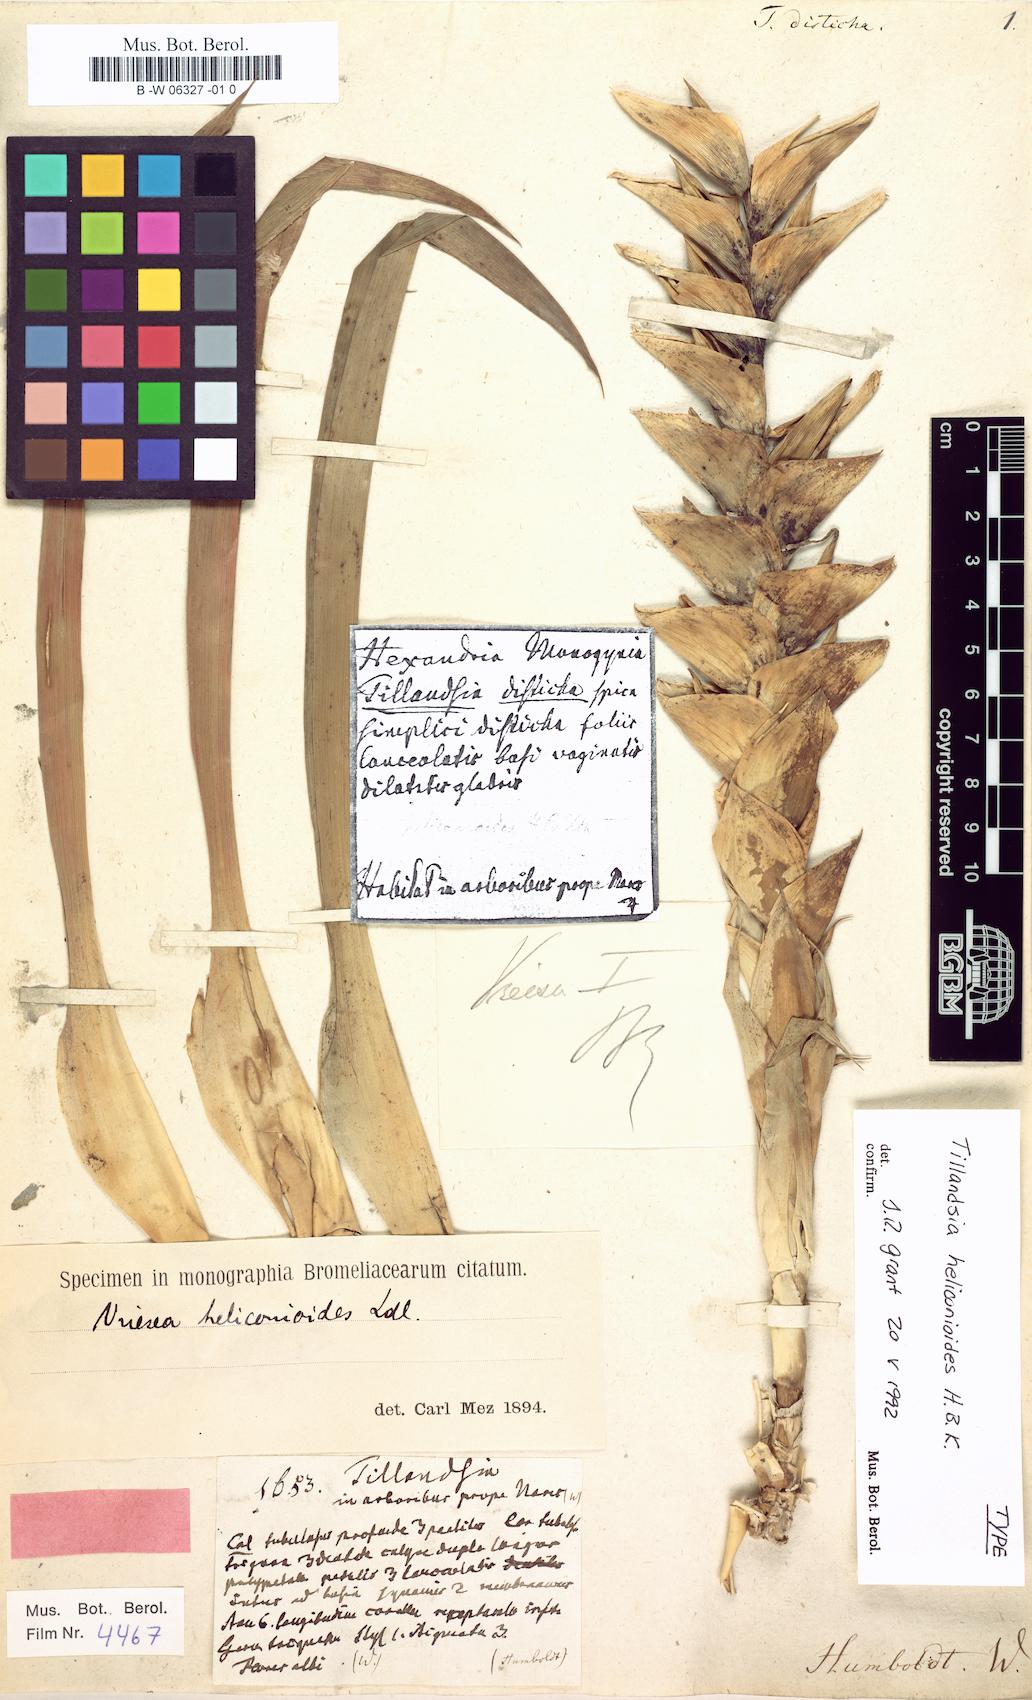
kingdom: Plantae
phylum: Tracheophyta
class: Liliopsida
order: Poales
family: Bromeliaceae
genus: Tillandsia
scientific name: Tillandsia disticha
